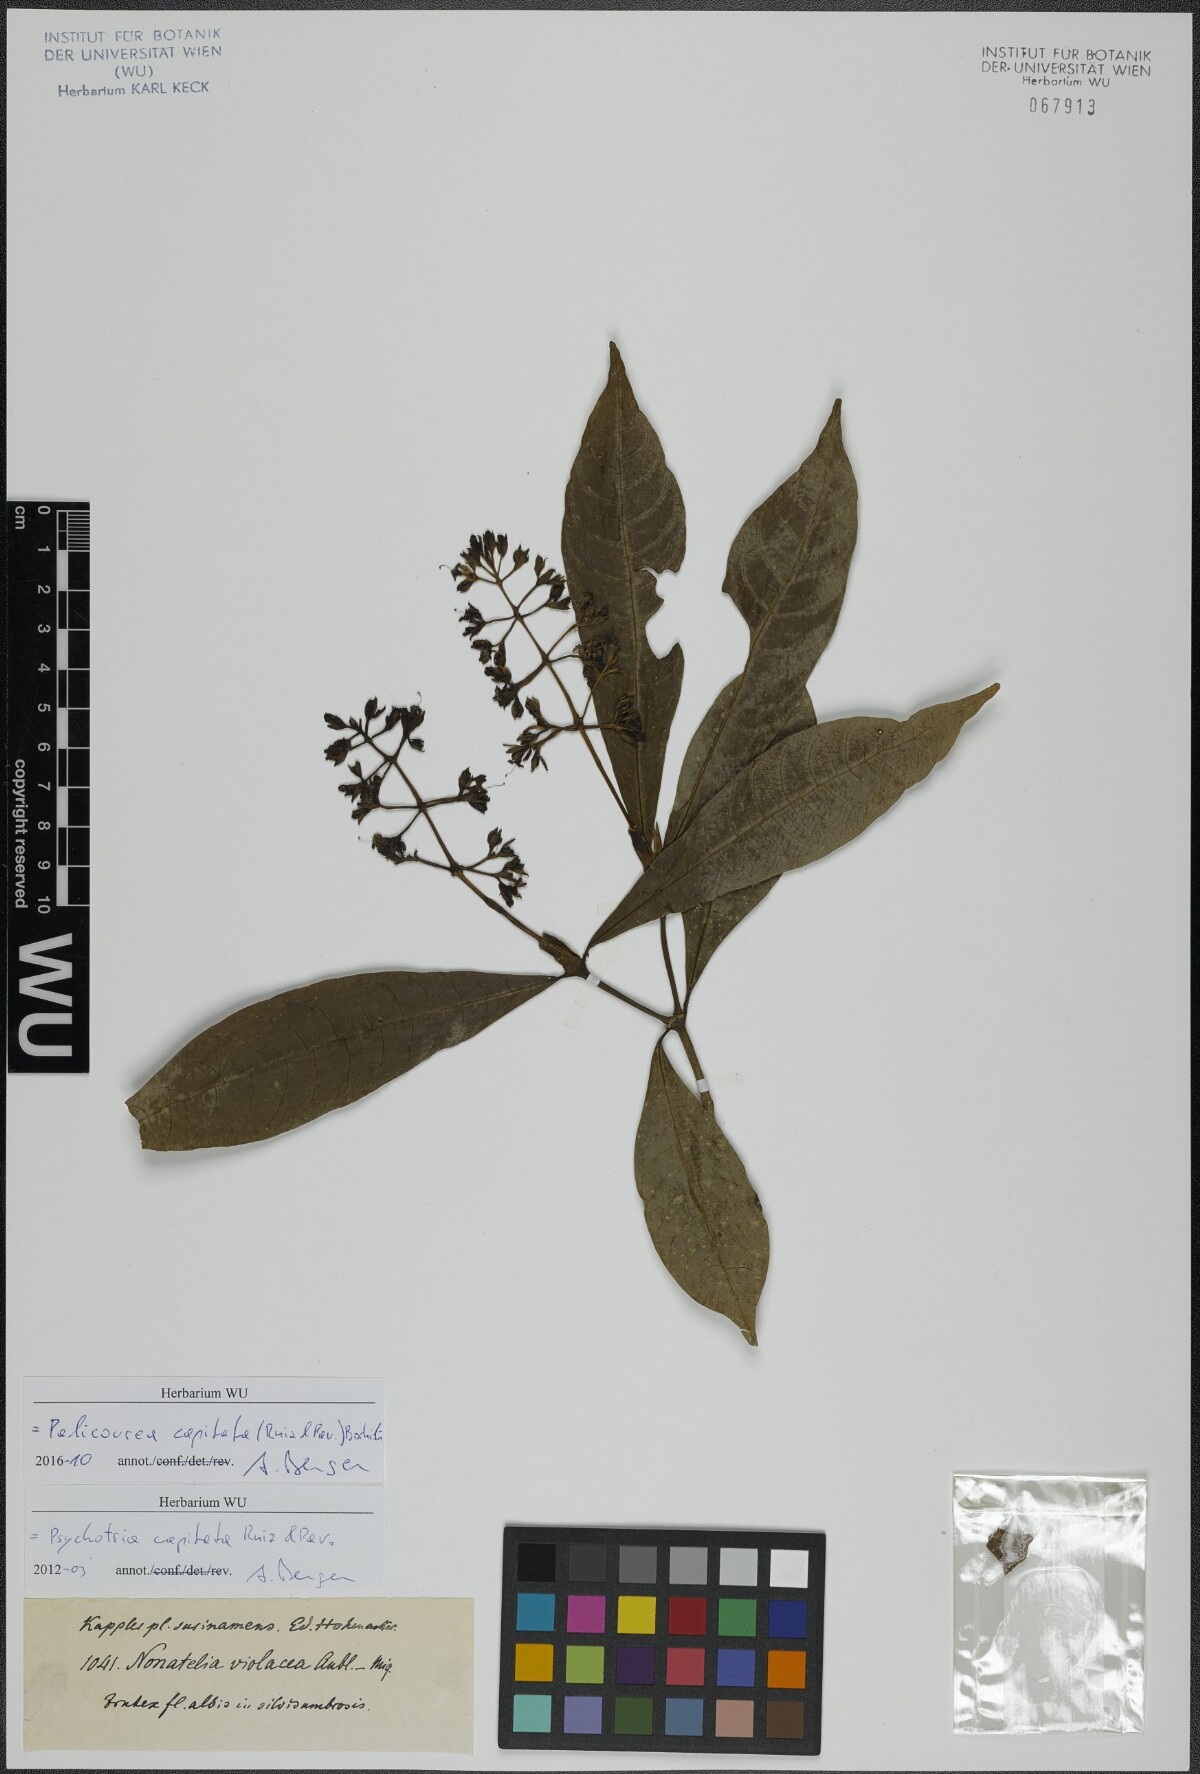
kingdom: Plantae
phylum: Tracheophyta
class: Magnoliopsida
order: Gentianales
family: Rubiaceae
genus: Palicourea
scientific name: Palicourea violacea
